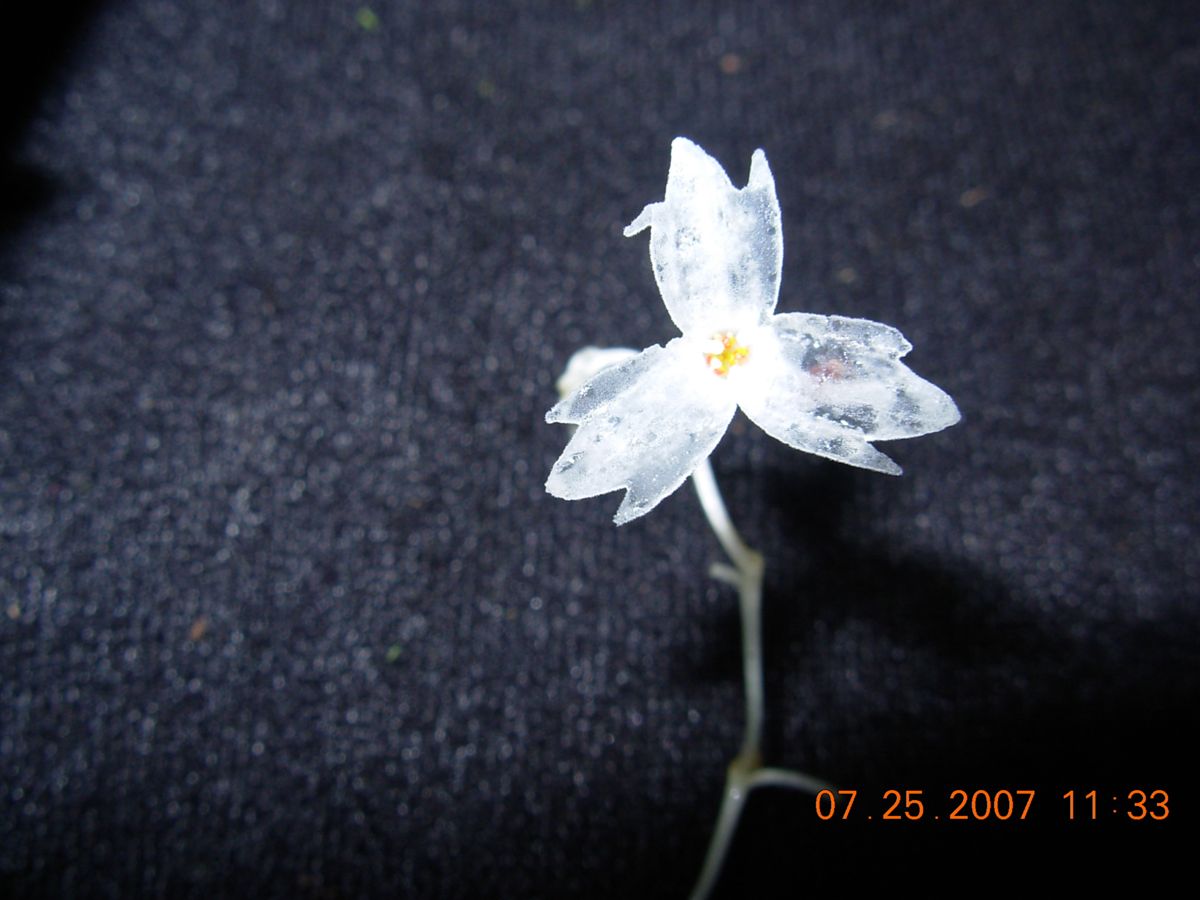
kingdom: Plantae
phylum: Tracheophyta
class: Liliopsida
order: Dioscoreales
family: Burmanniaceae
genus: Gymnosiphon
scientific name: Gymnosiphon suaveolens
